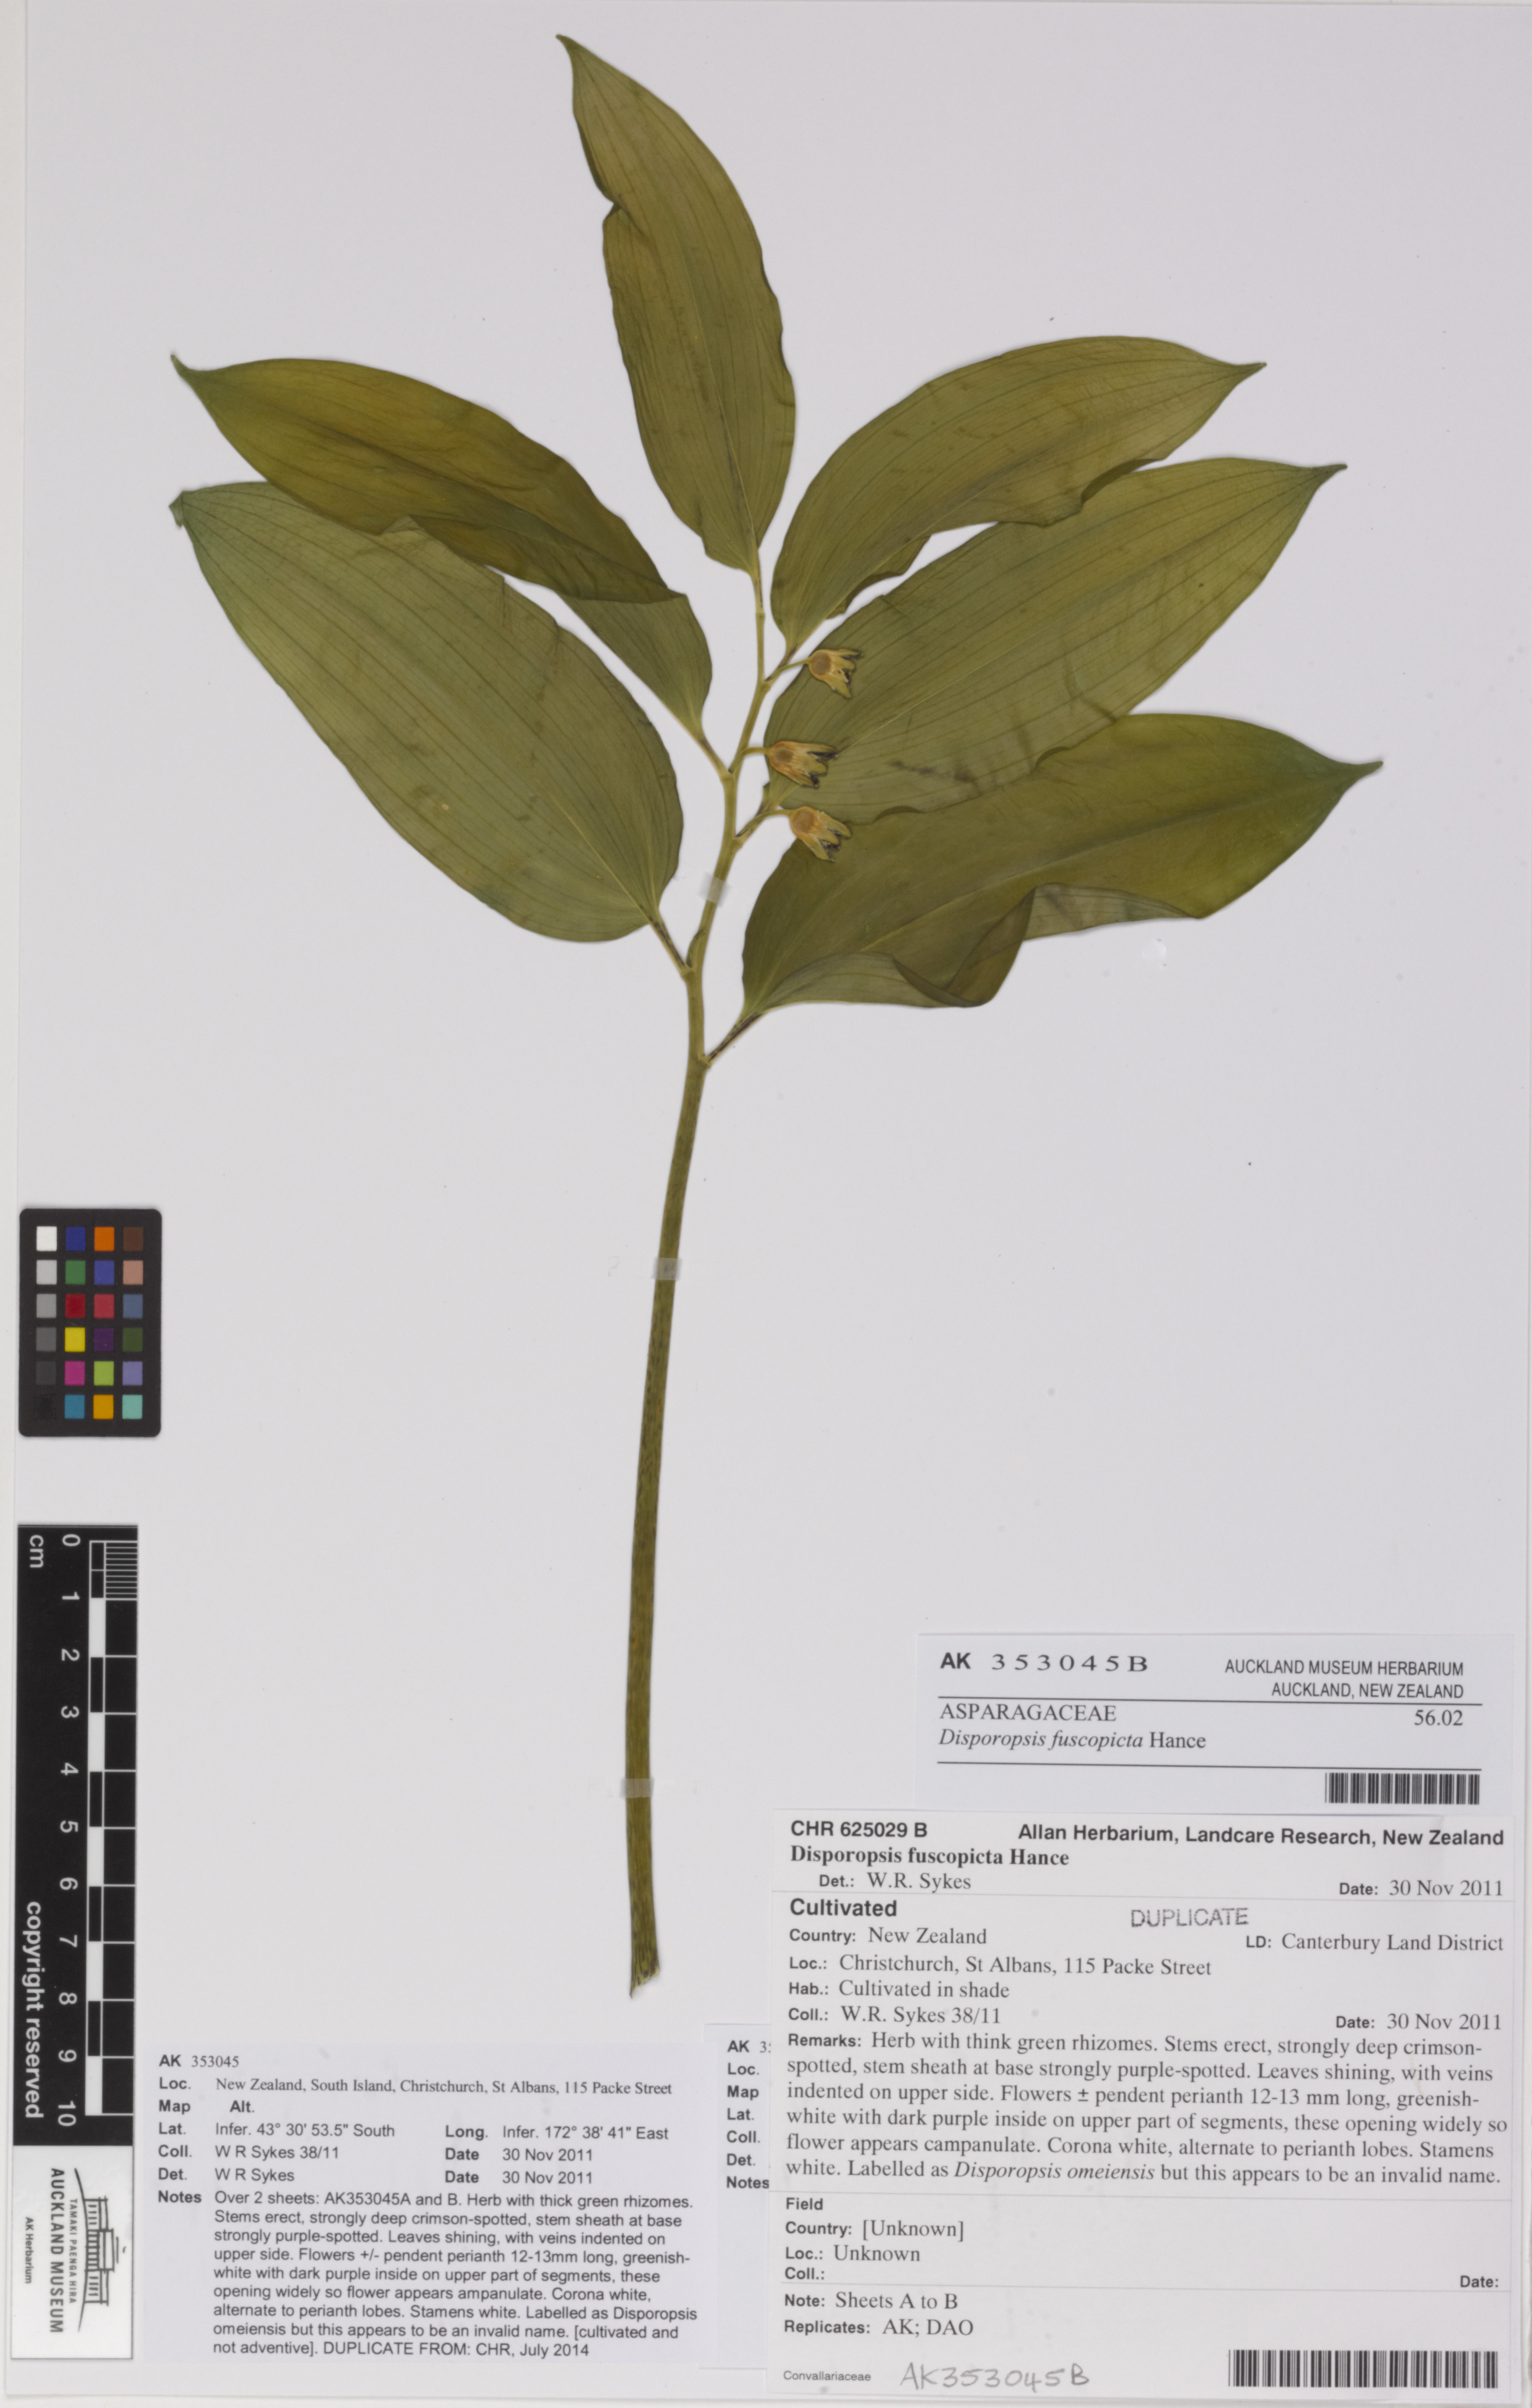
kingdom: Plantae
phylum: Tracheophyta
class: Liliopsida
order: Asparagales
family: Asparagaceae
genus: Disporopsis
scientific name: Disporopsis fuscopicta
